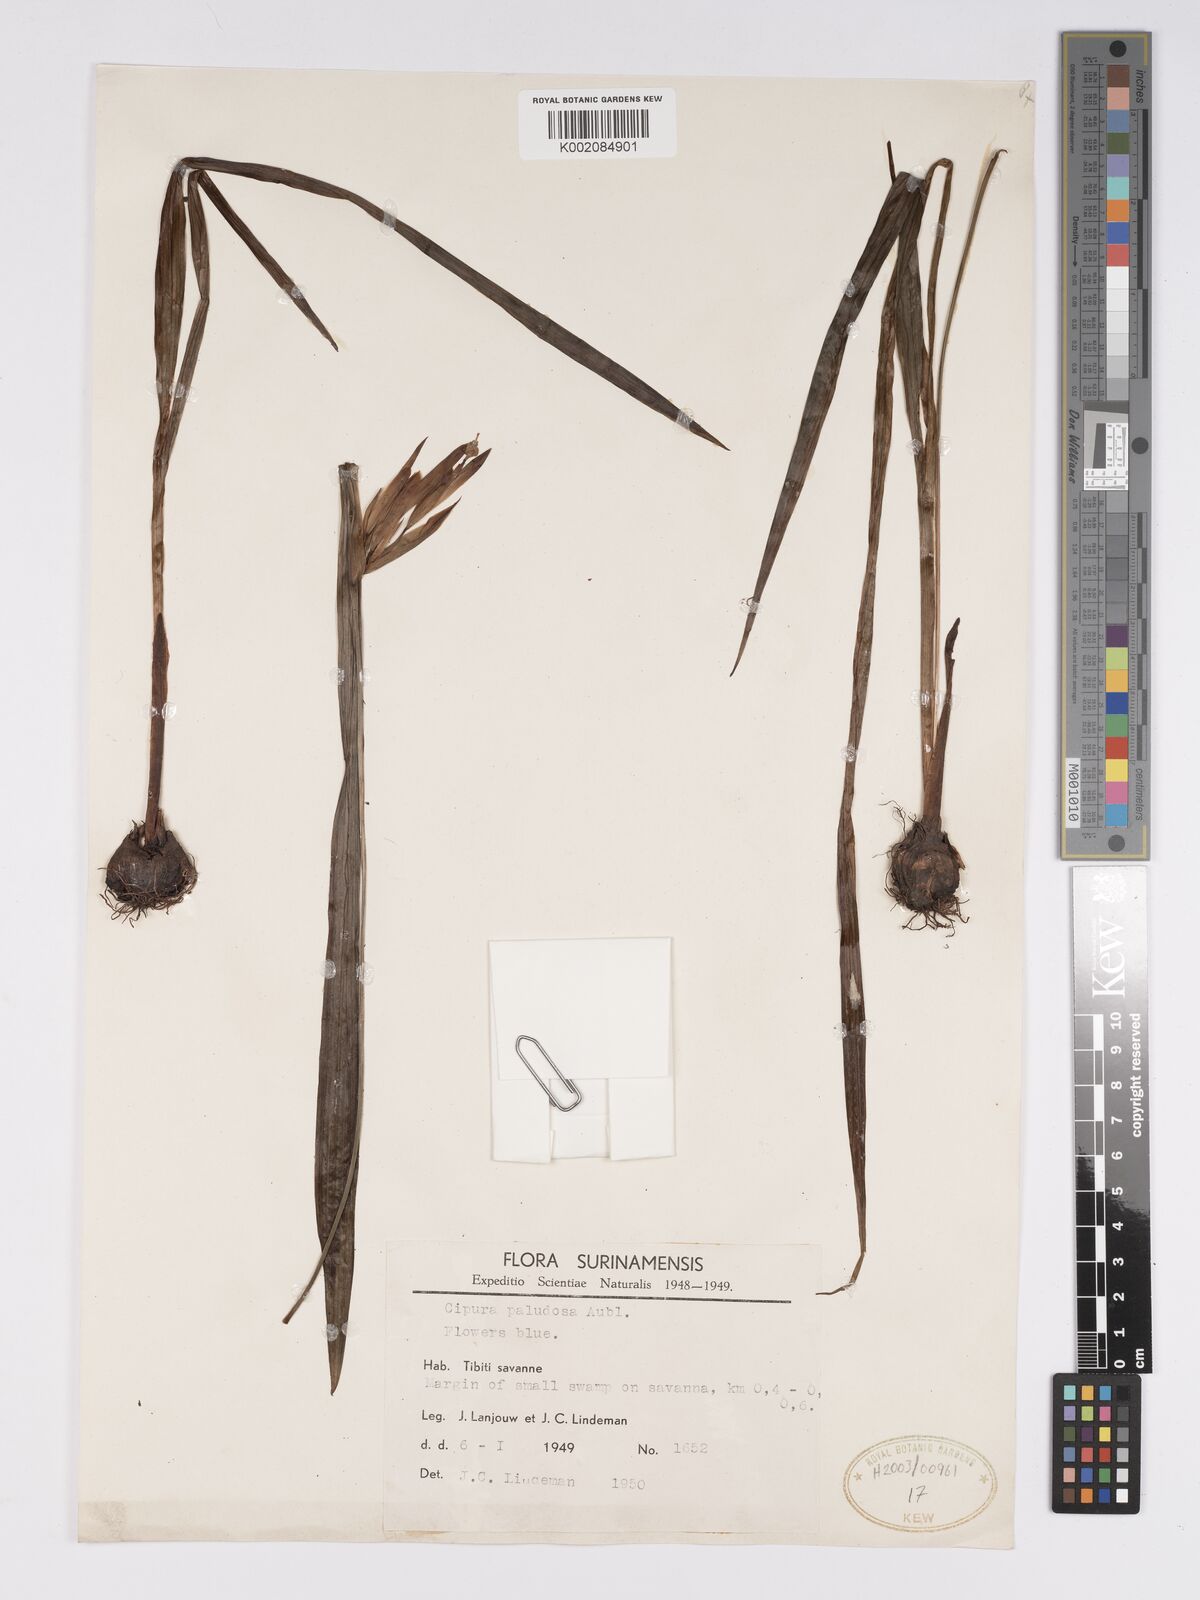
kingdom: Plantae
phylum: Tracheophyta
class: Liliopsida
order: Asparagales
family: Iridaceae
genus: Cipura
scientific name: Cipura paludosa
